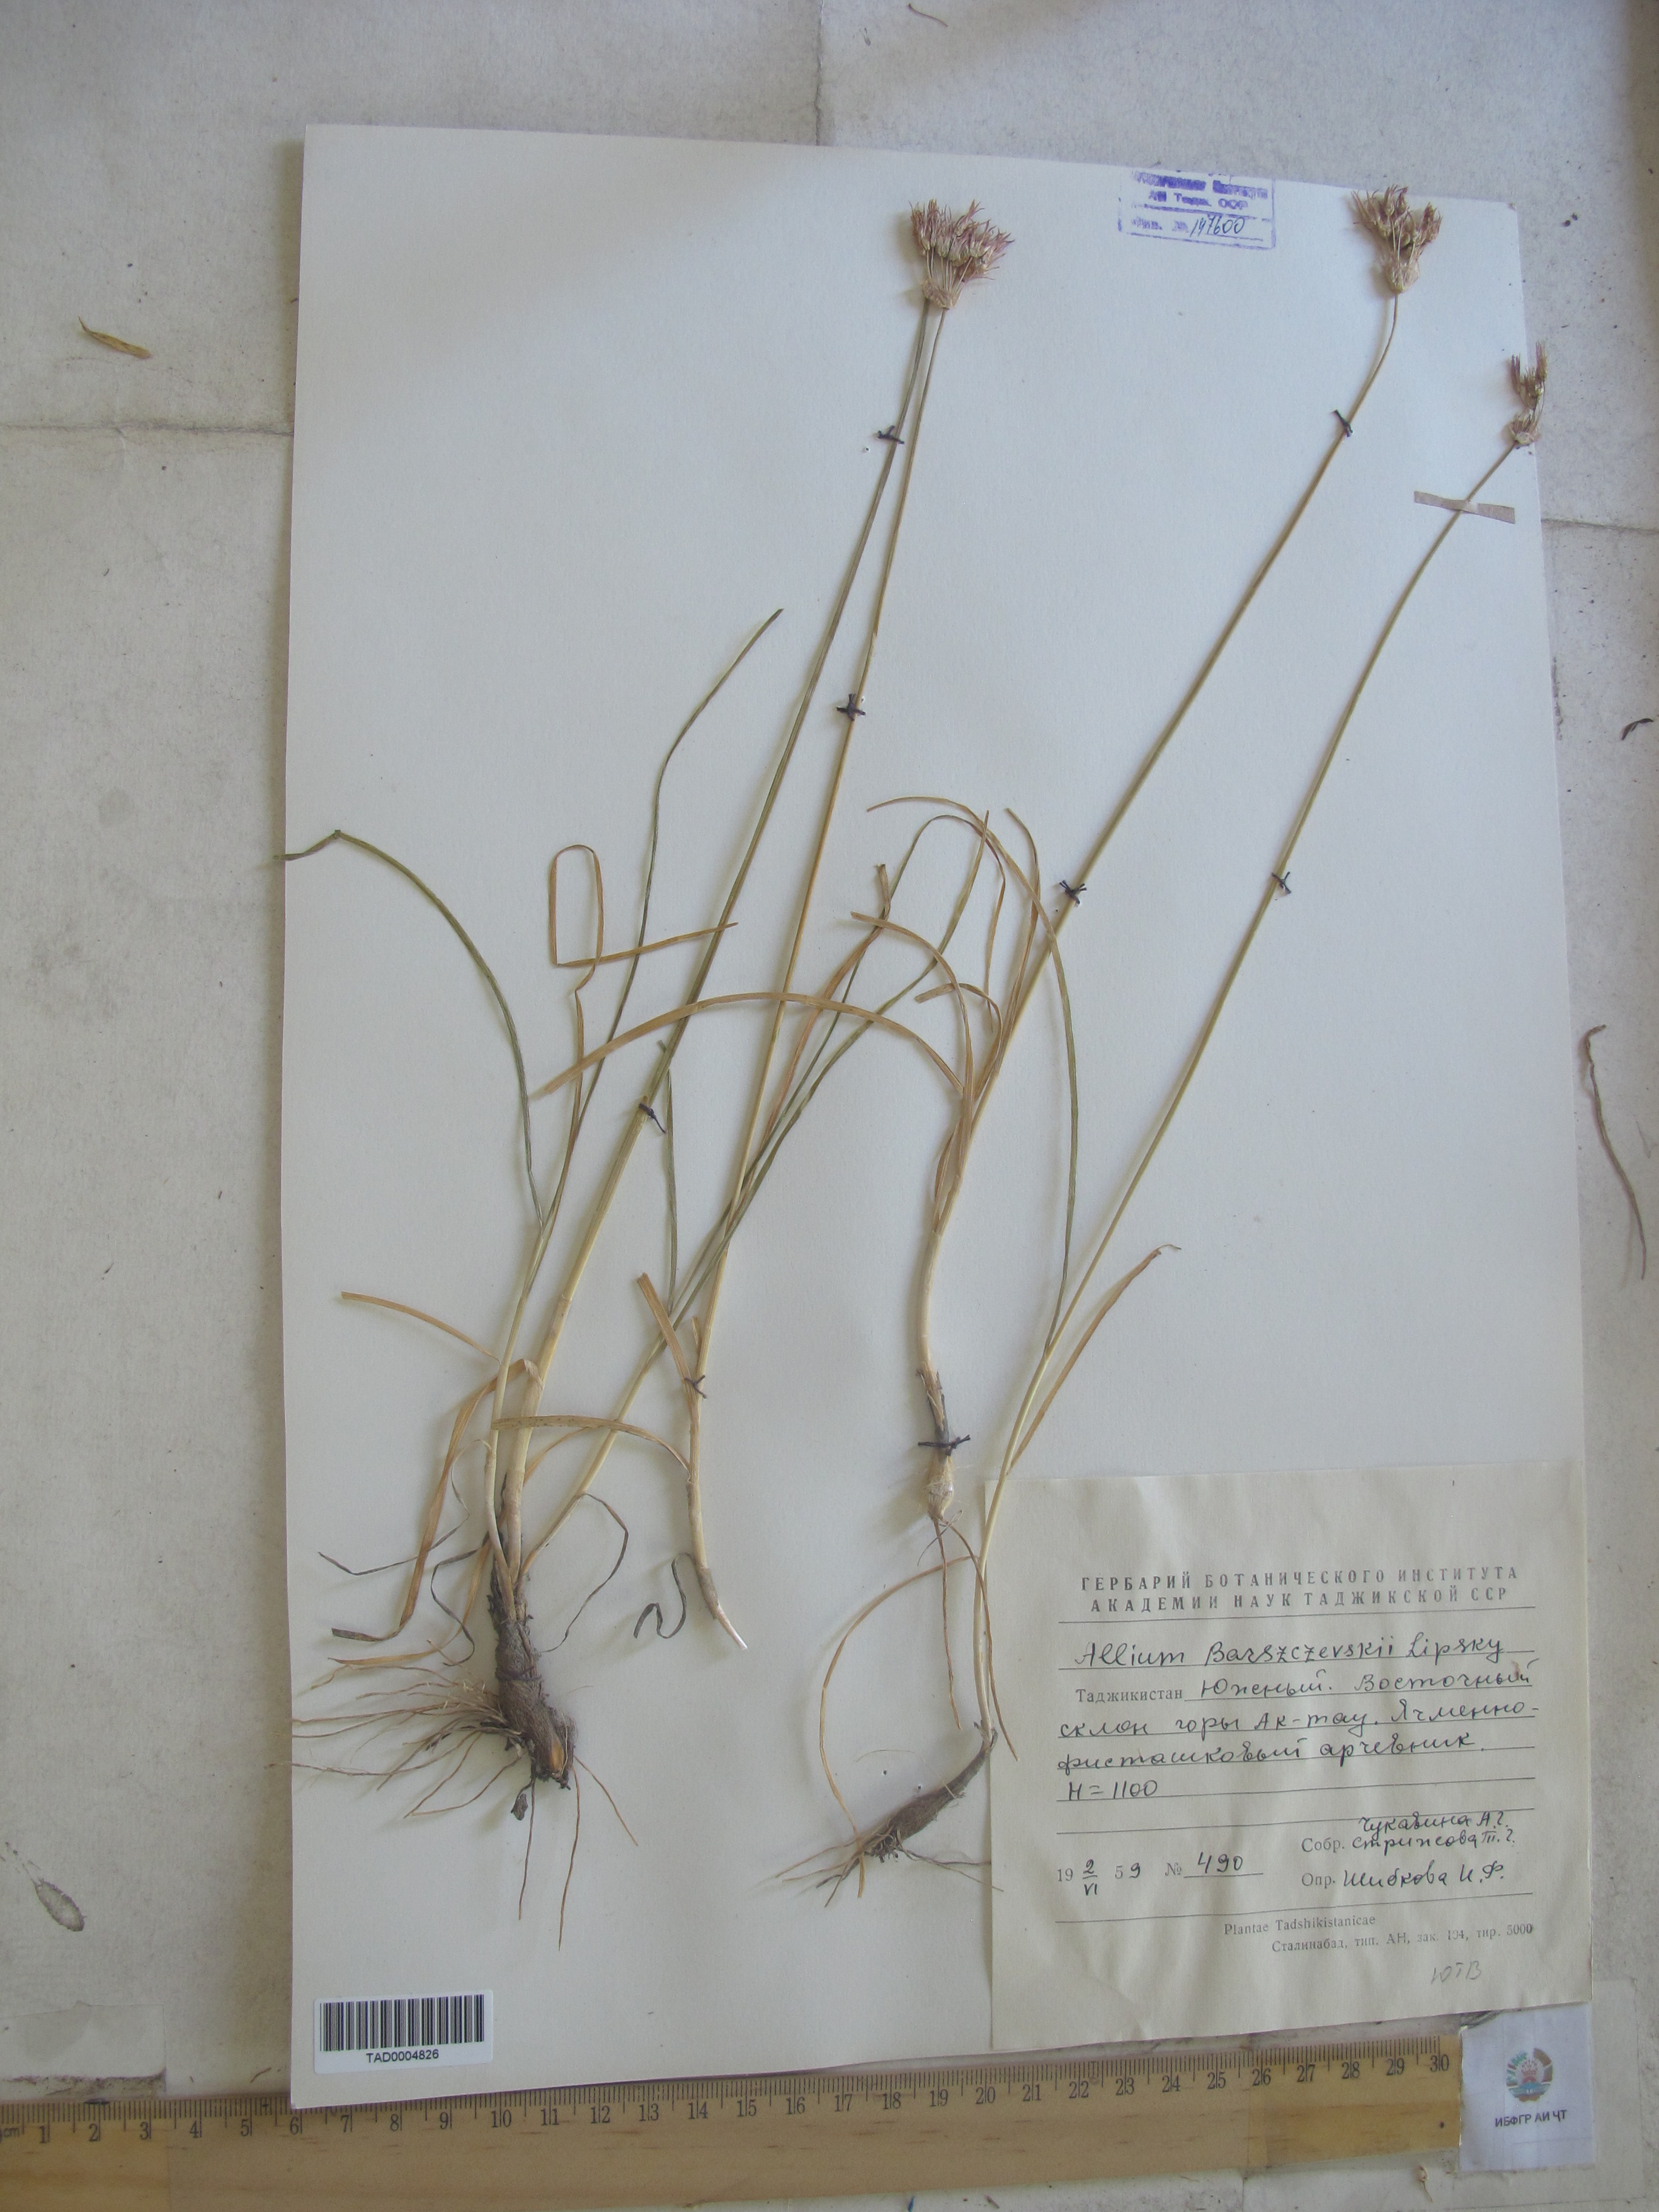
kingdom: Plantae
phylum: Tracheophyta
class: Liliopsida
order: Asparagales
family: Amaryllidaceae
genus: Allium
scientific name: Allium barsczewskii
